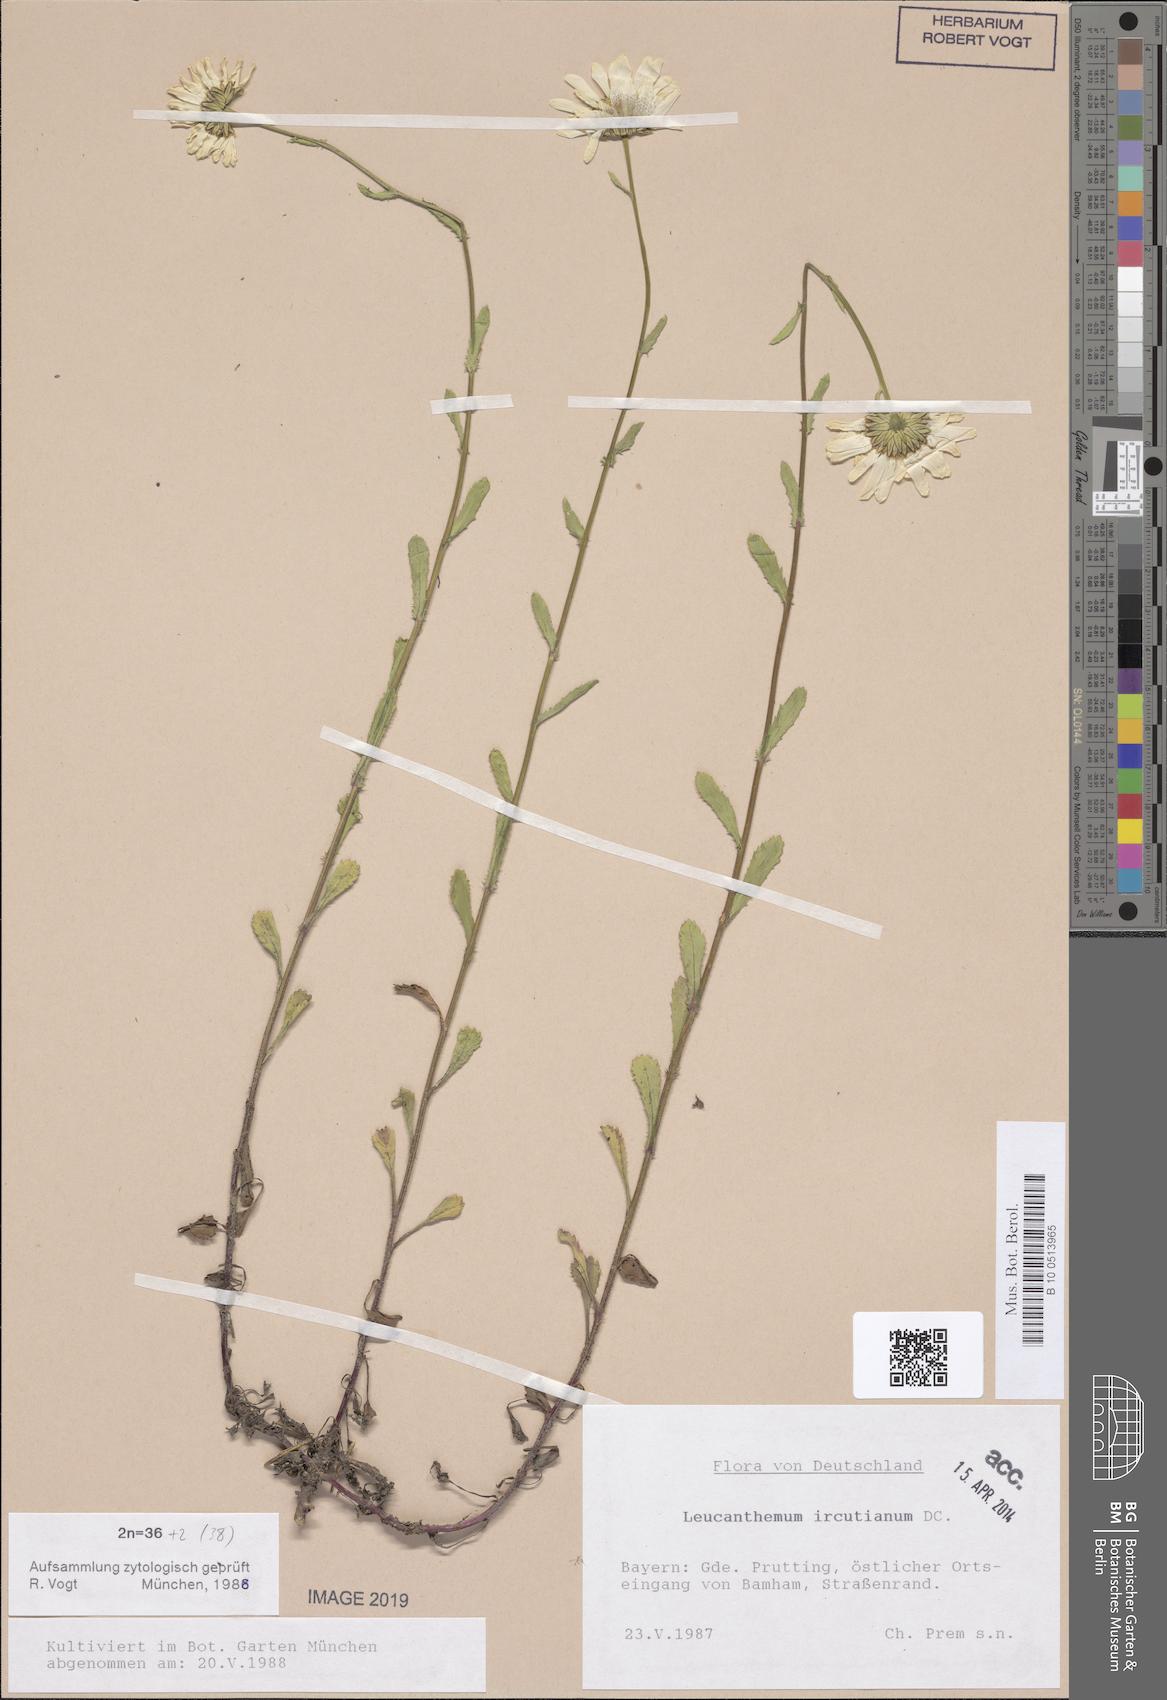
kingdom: Plantae
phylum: Tracheophyta
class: Magnoliopsida
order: Asterales
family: Asteraceae
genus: Leucanthemum
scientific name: Leucanthemum ircutianum
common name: Daisy
